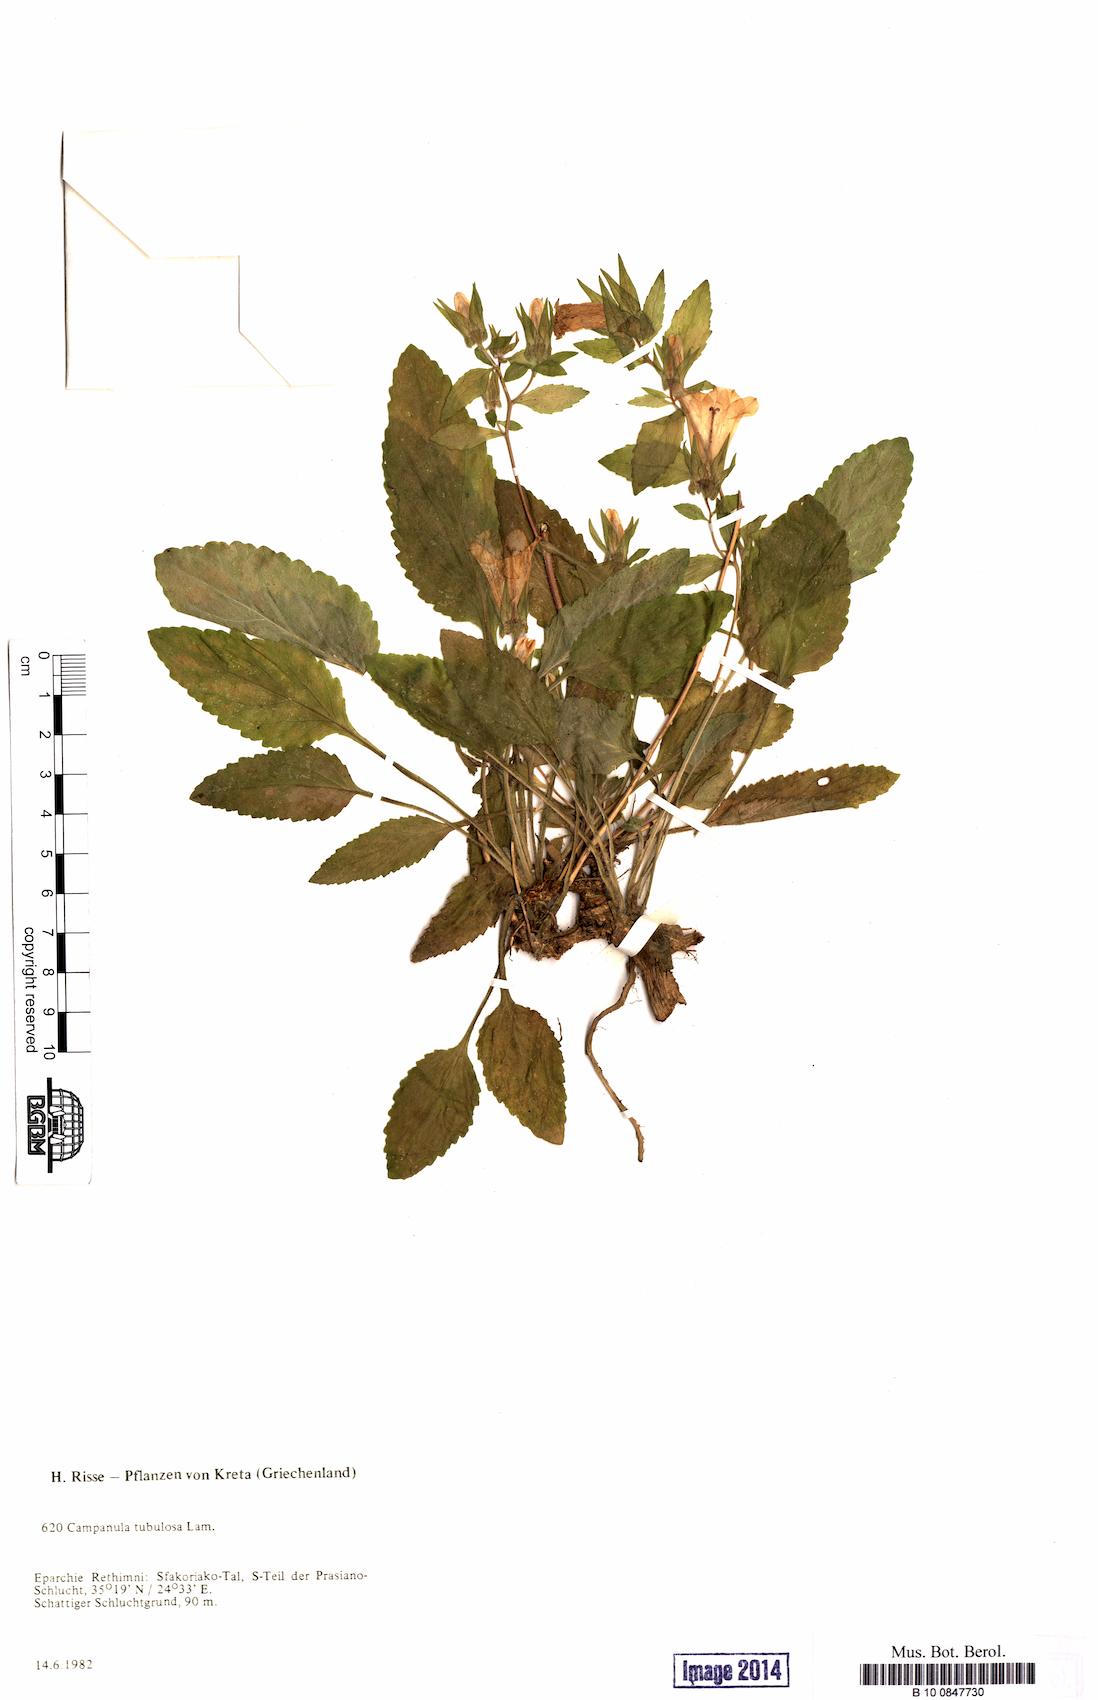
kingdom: Plantae
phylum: Tracheophyta
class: Magnoliopsida
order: Asterales
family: Campanulaceae
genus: Campanula
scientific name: Campanula tubulosa
